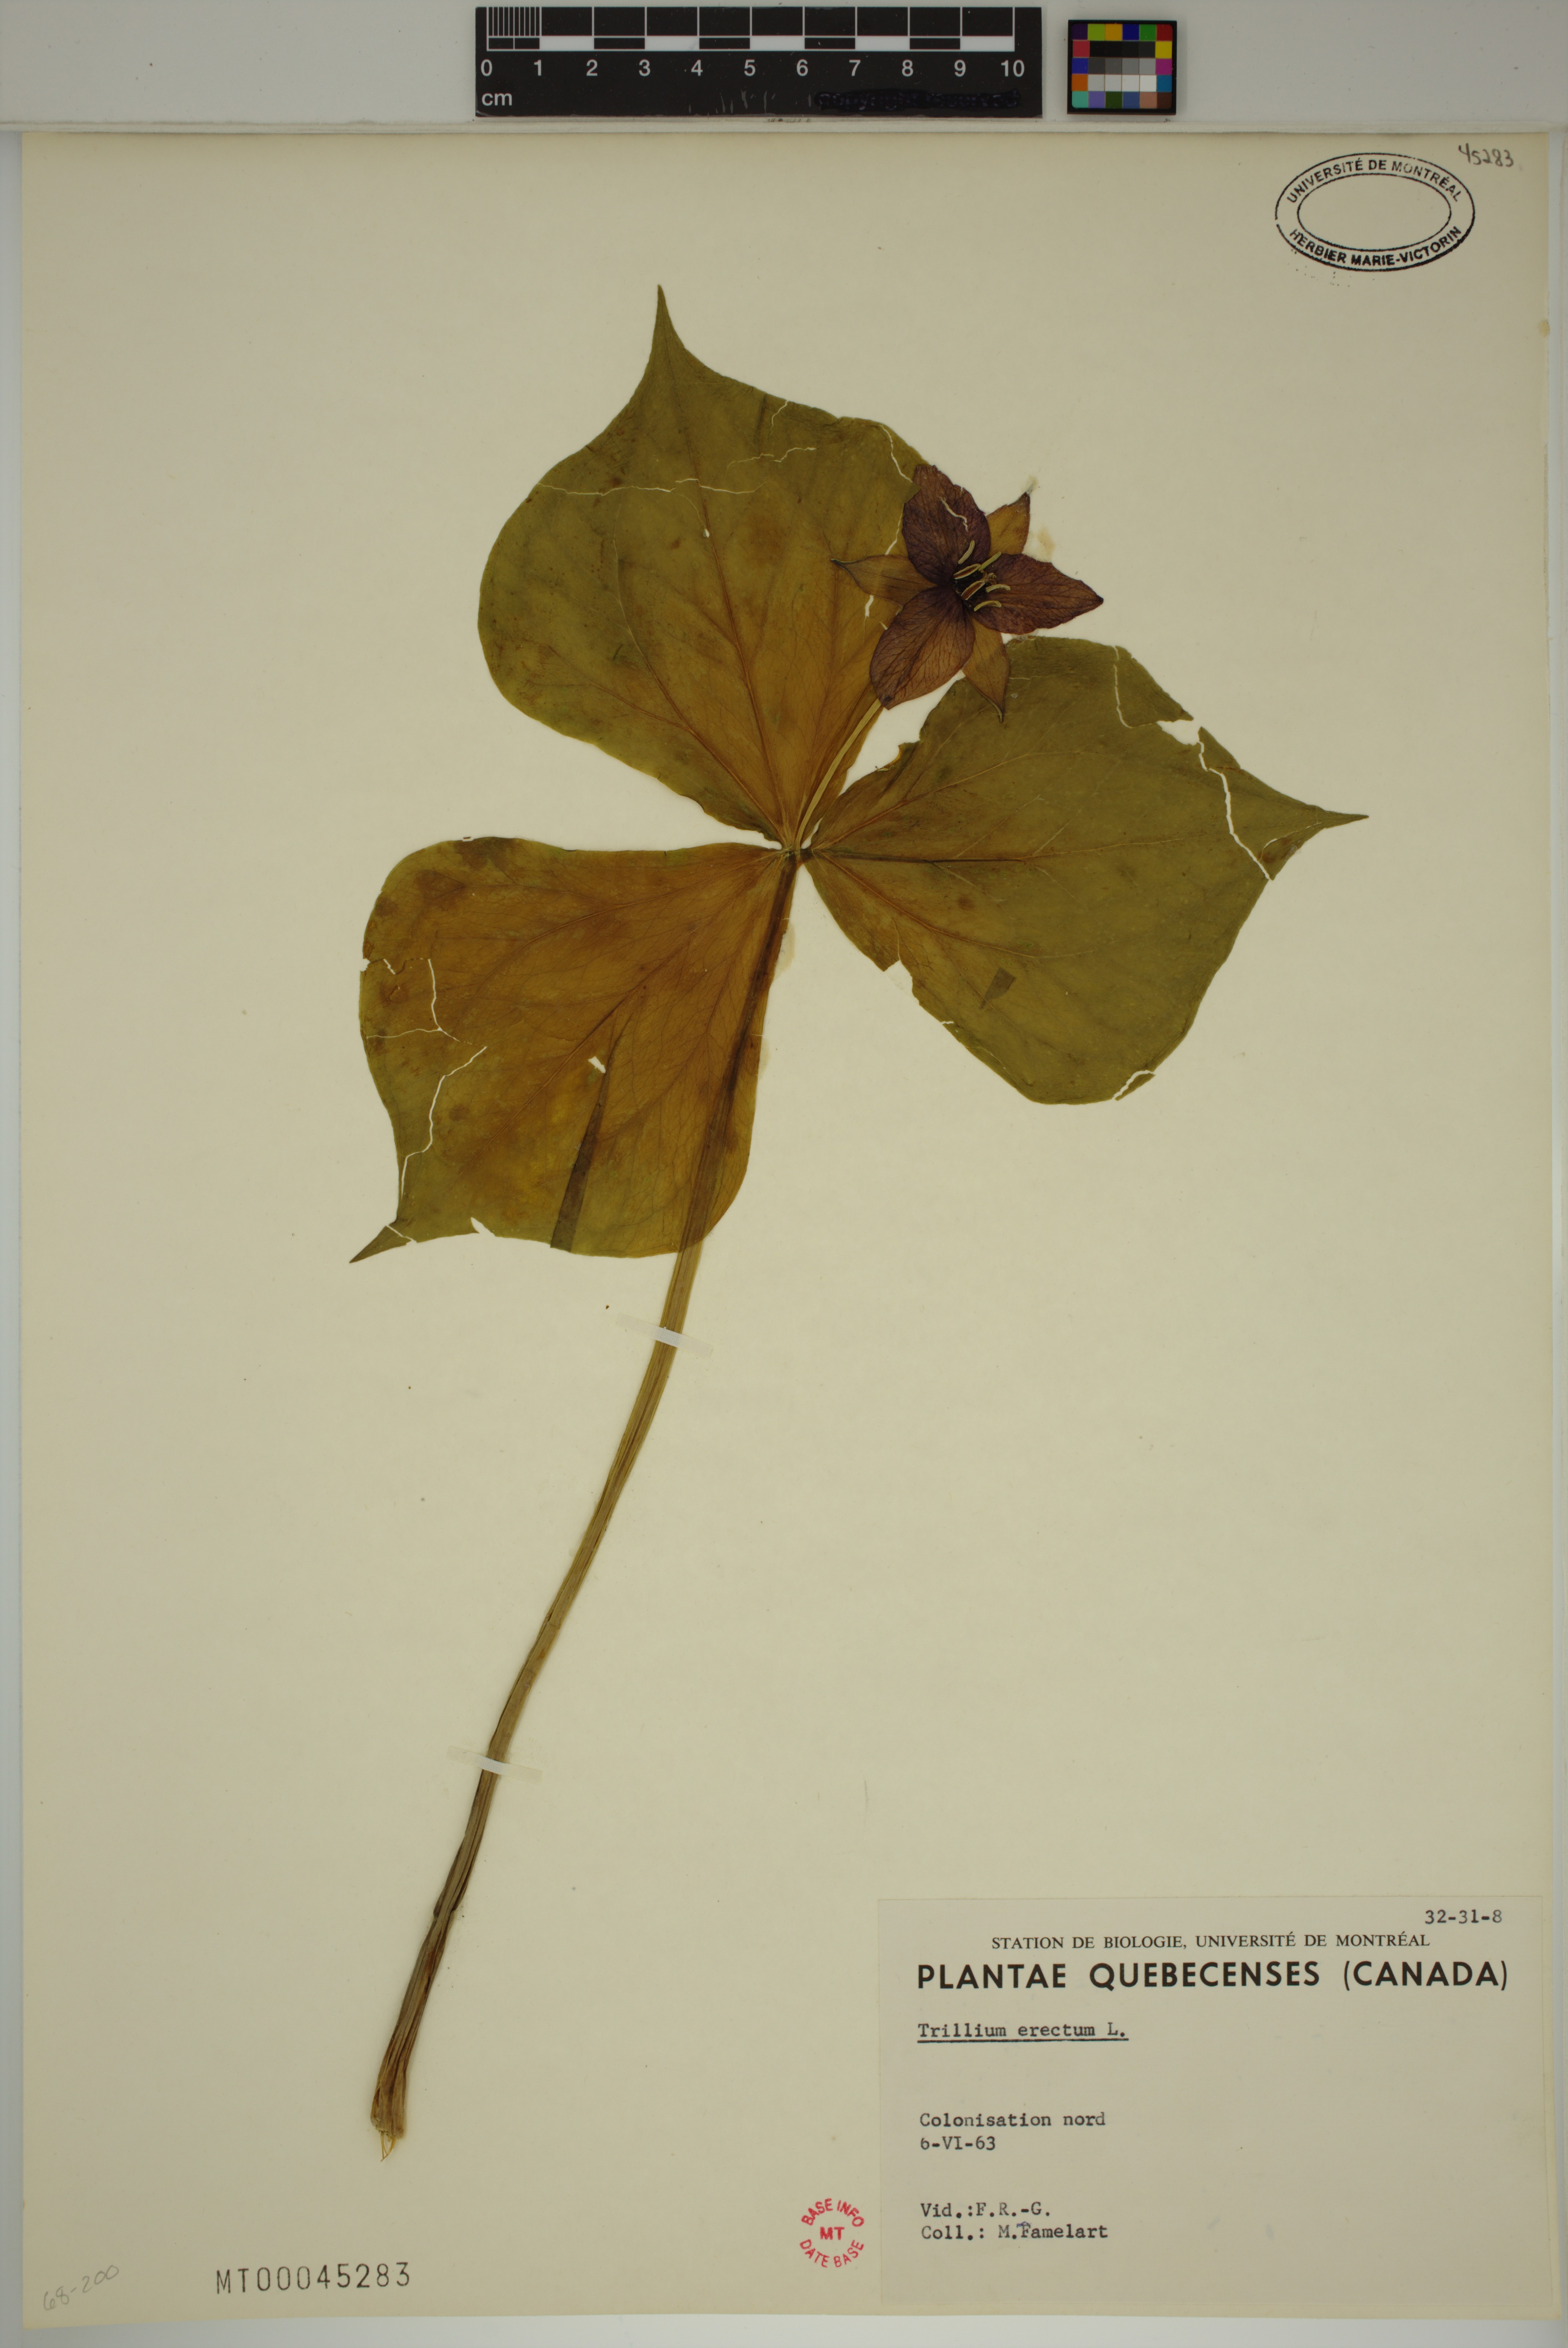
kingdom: Plantae
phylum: Tracheophyta
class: Liliopsida
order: Liliales
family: Melanthiaceae
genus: Trillium
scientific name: Trillium erectum
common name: Purple trillium
